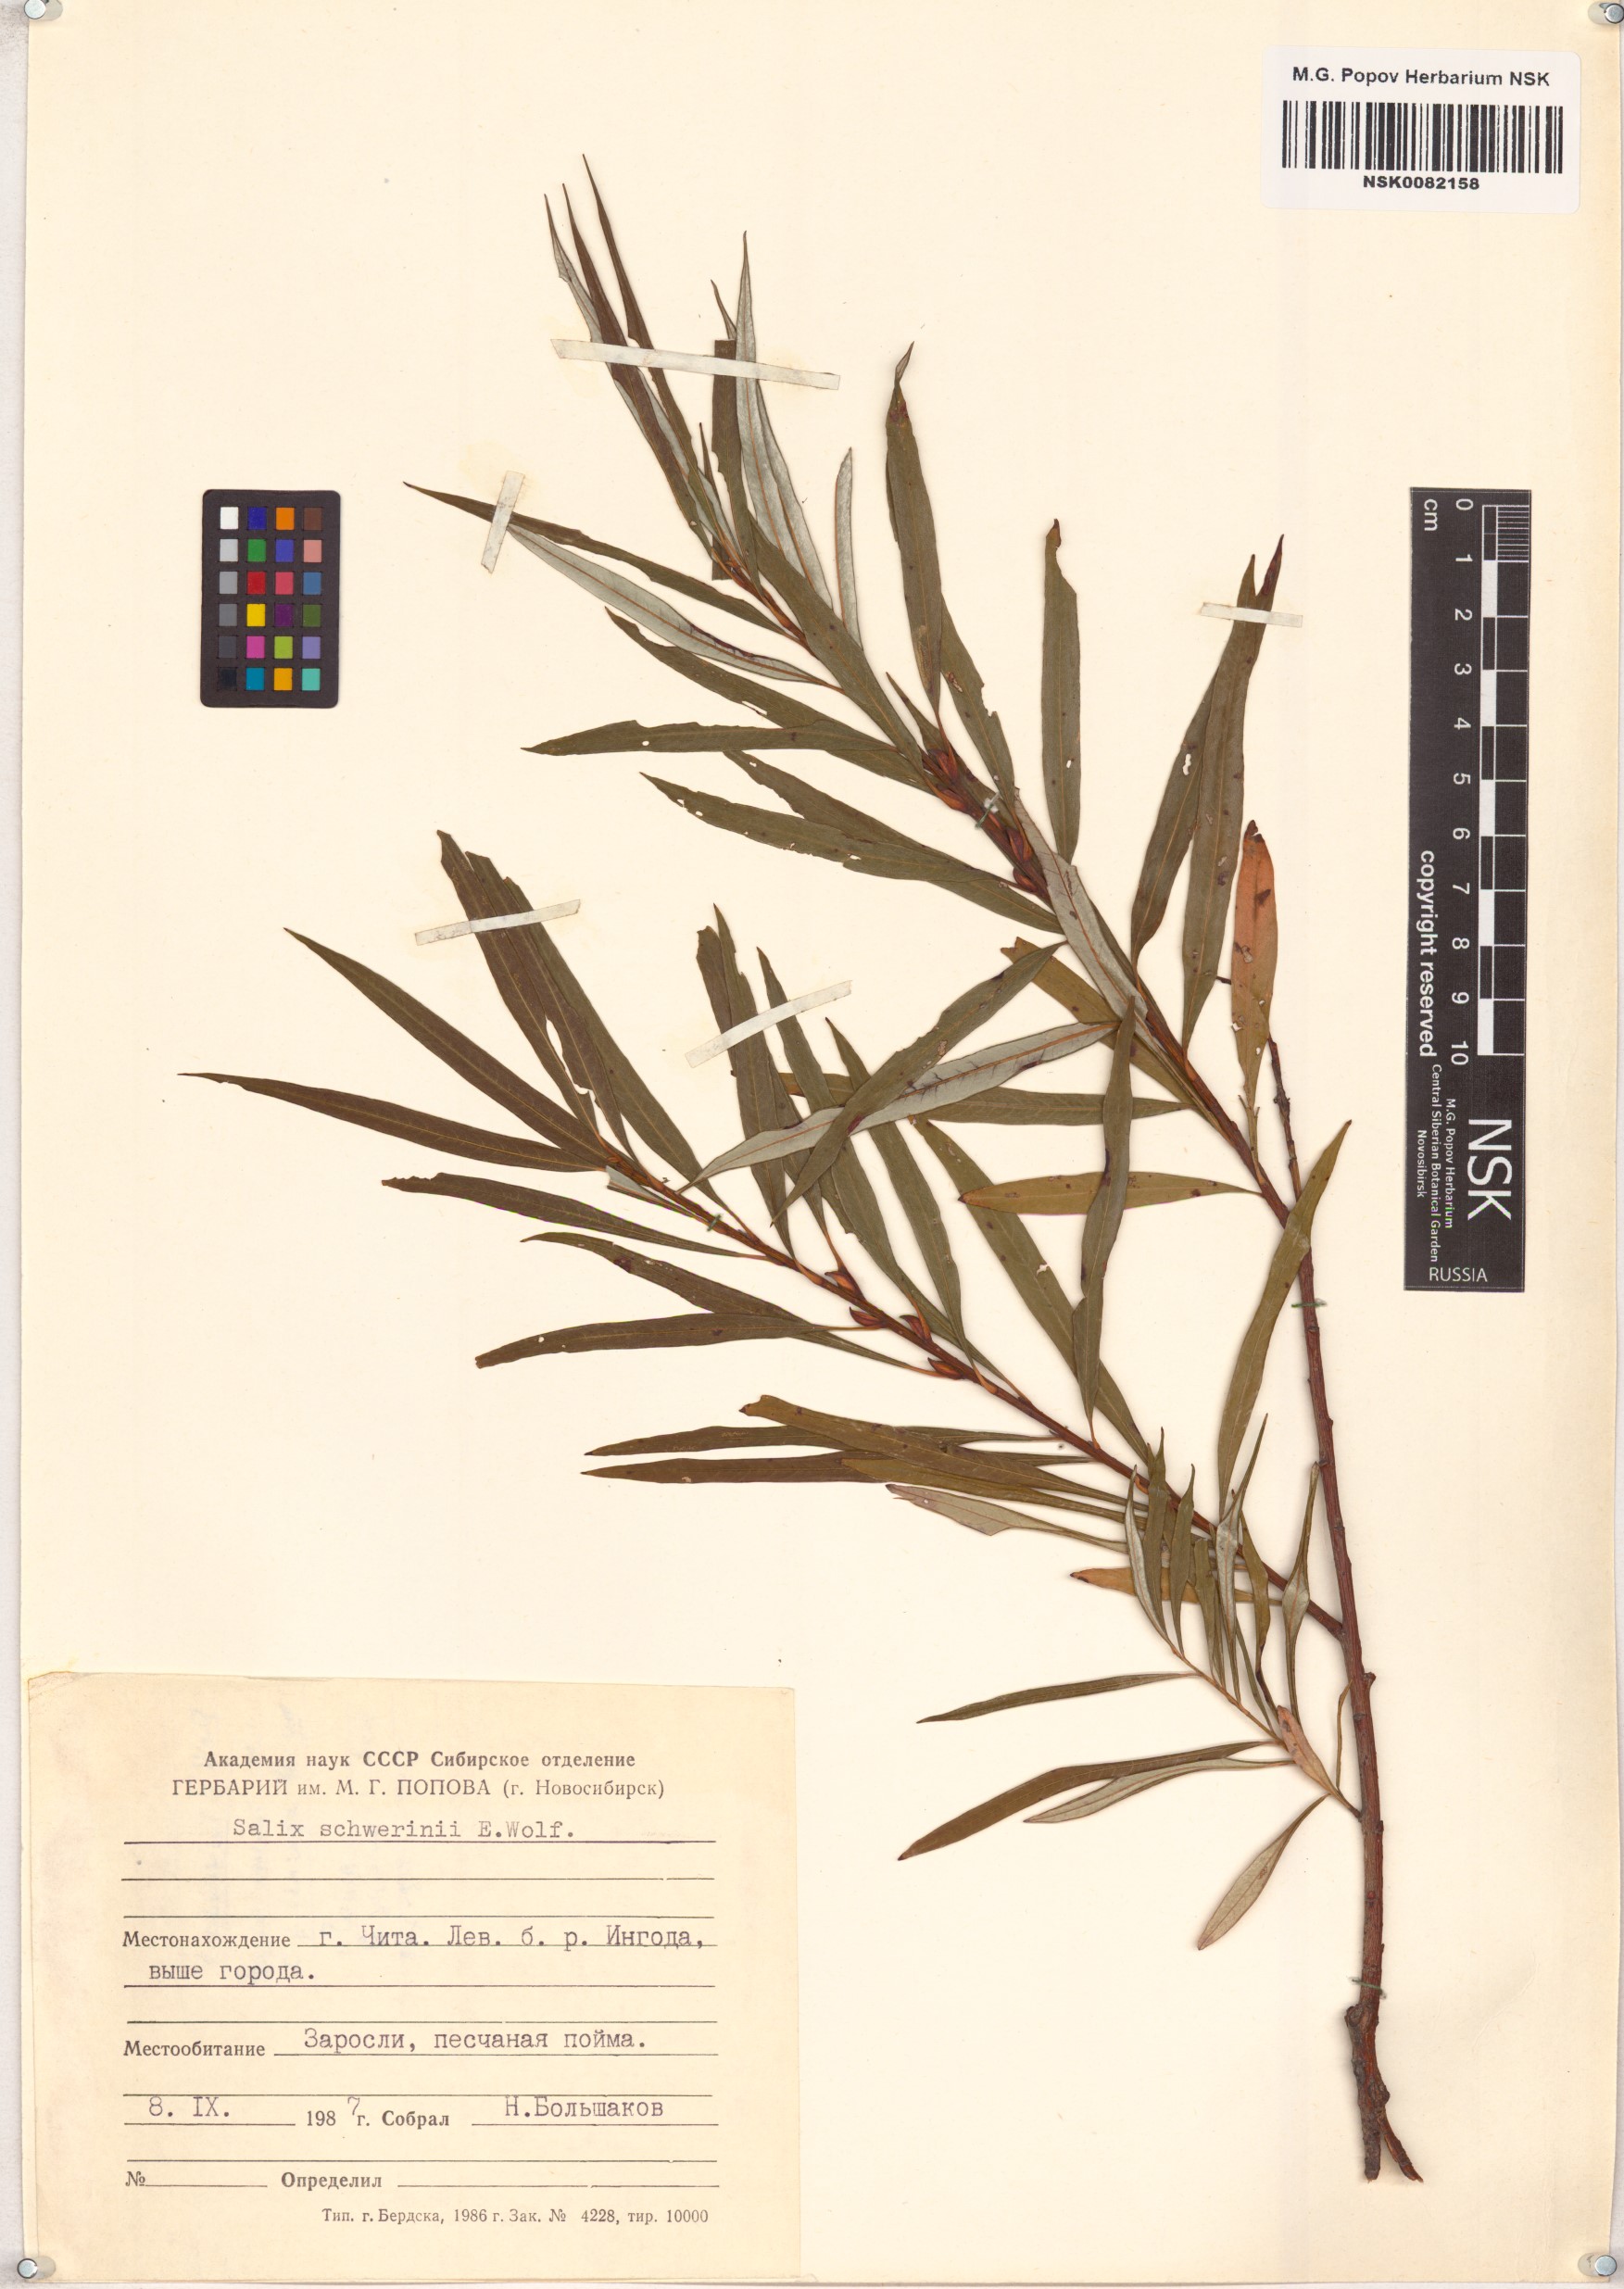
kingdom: Plantae
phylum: Tracheophyta
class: Magnoliopsida
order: Malpighiales
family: Salicaceae
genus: Salix
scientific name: Salix schwerinii
